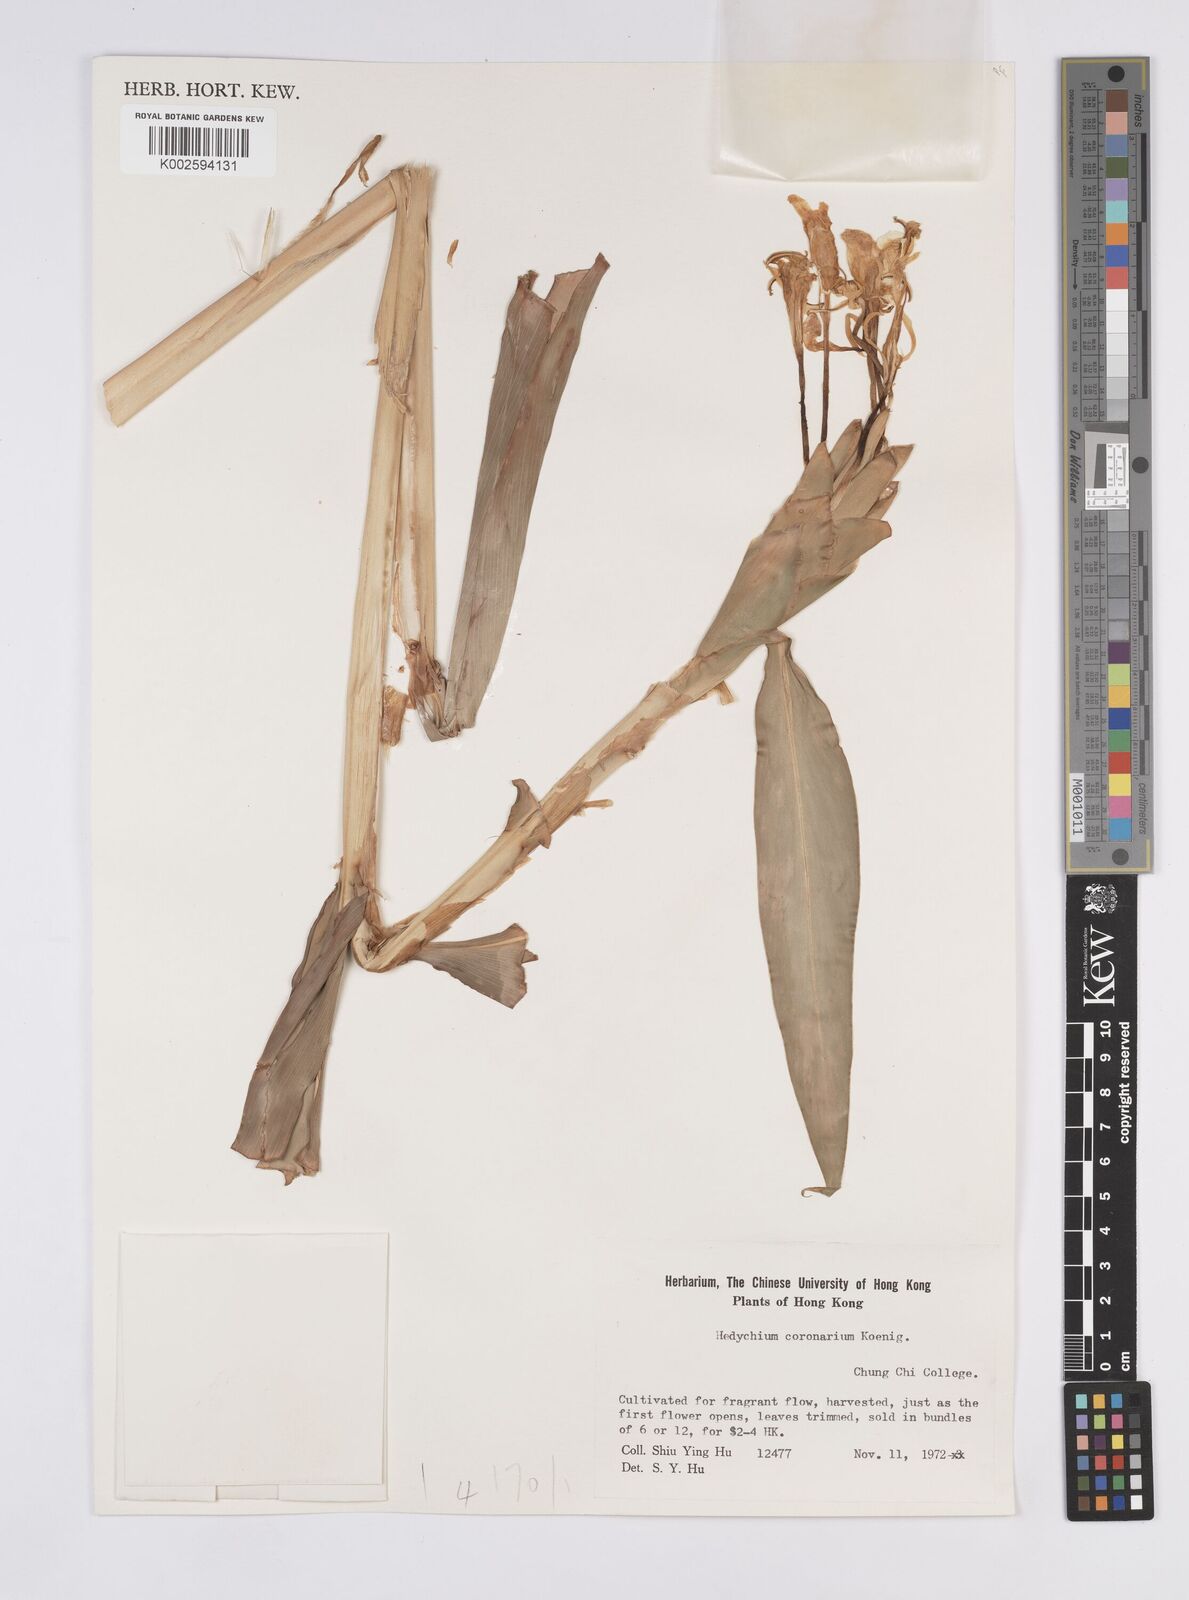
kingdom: Plantae
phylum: Tracheophyta
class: Liliopsida
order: Zingiberales
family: Zingiberaceae
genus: Hedychium
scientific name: Hedychium coronarium
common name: White garland-lily
